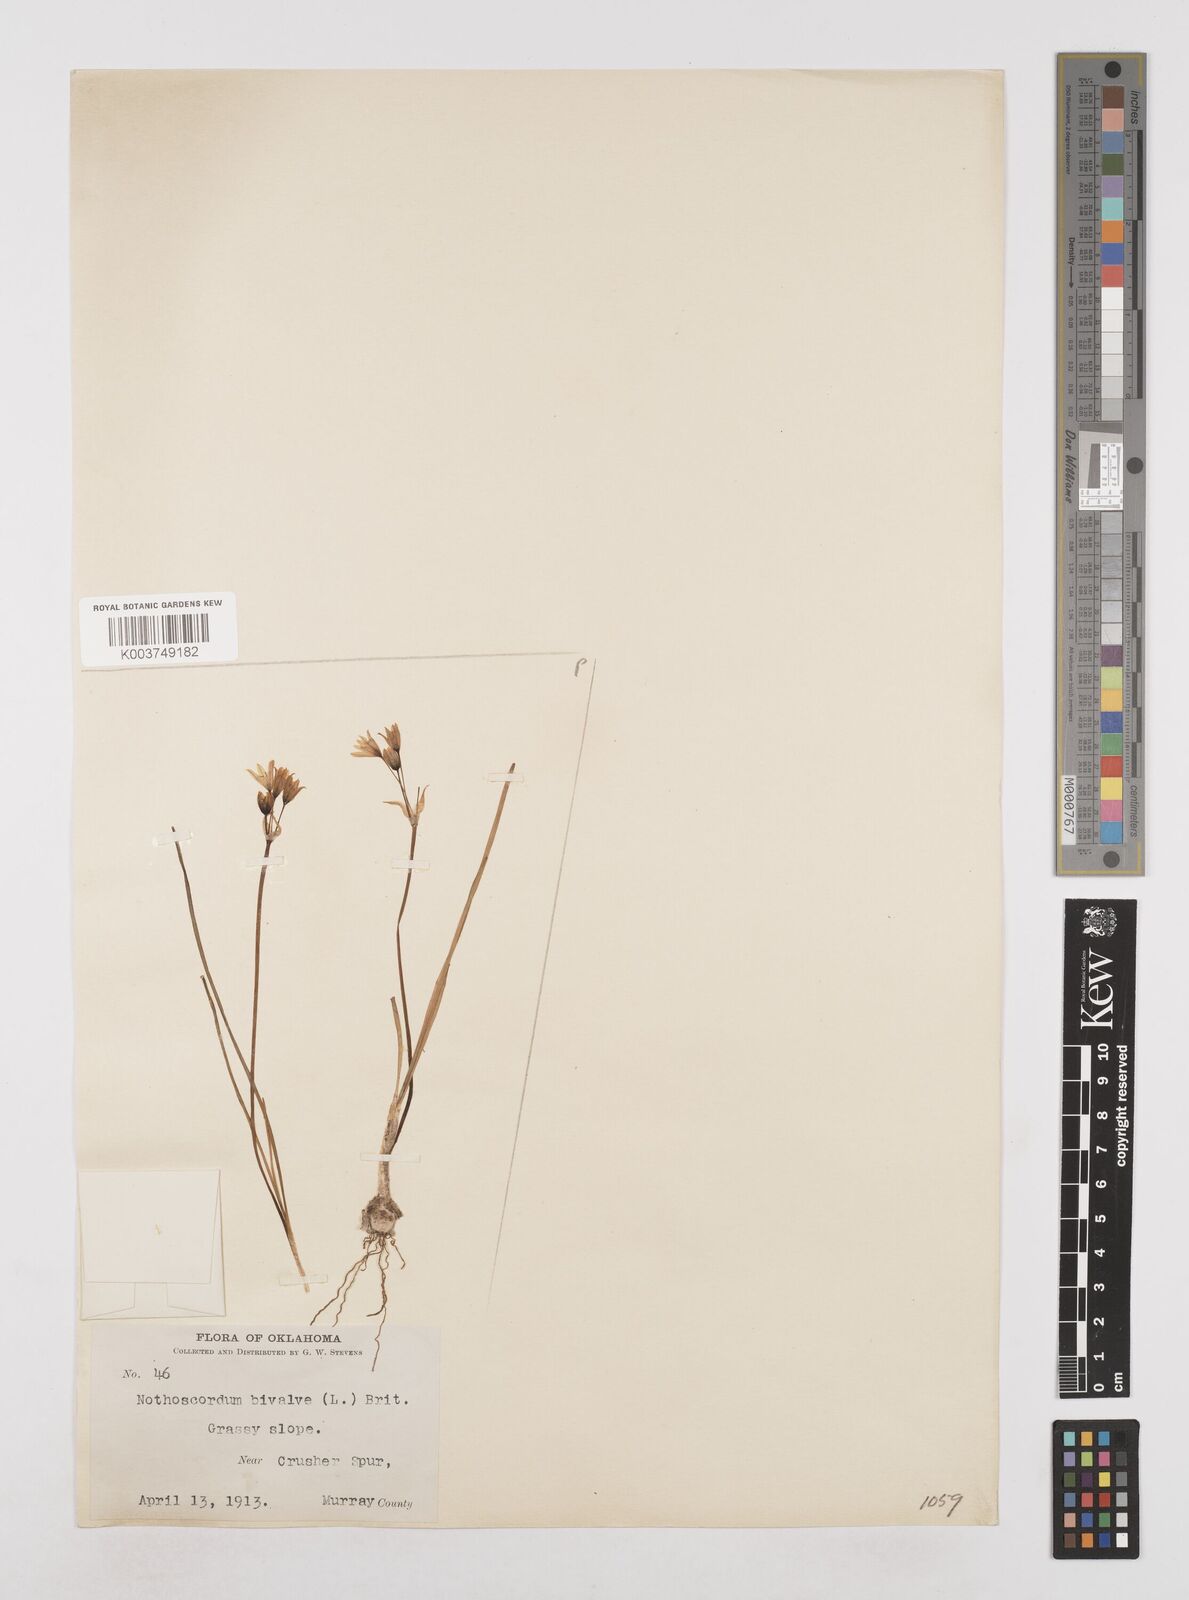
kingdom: Plantae
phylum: Tracheophyta
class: Liliopsida
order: Asparagales
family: Amaryllidaceae
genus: Nothoscordum
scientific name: Nothoscordum bivalve
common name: Crow-poison
